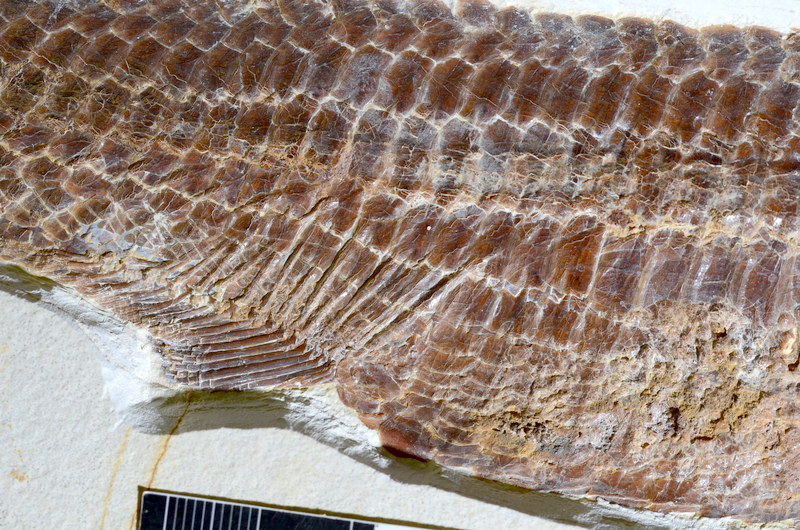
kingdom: Animalia
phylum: Chordata
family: Aspidorhynchidae
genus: Aspidorhynchus
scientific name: Aspidorhynchus sanzenbacheri
